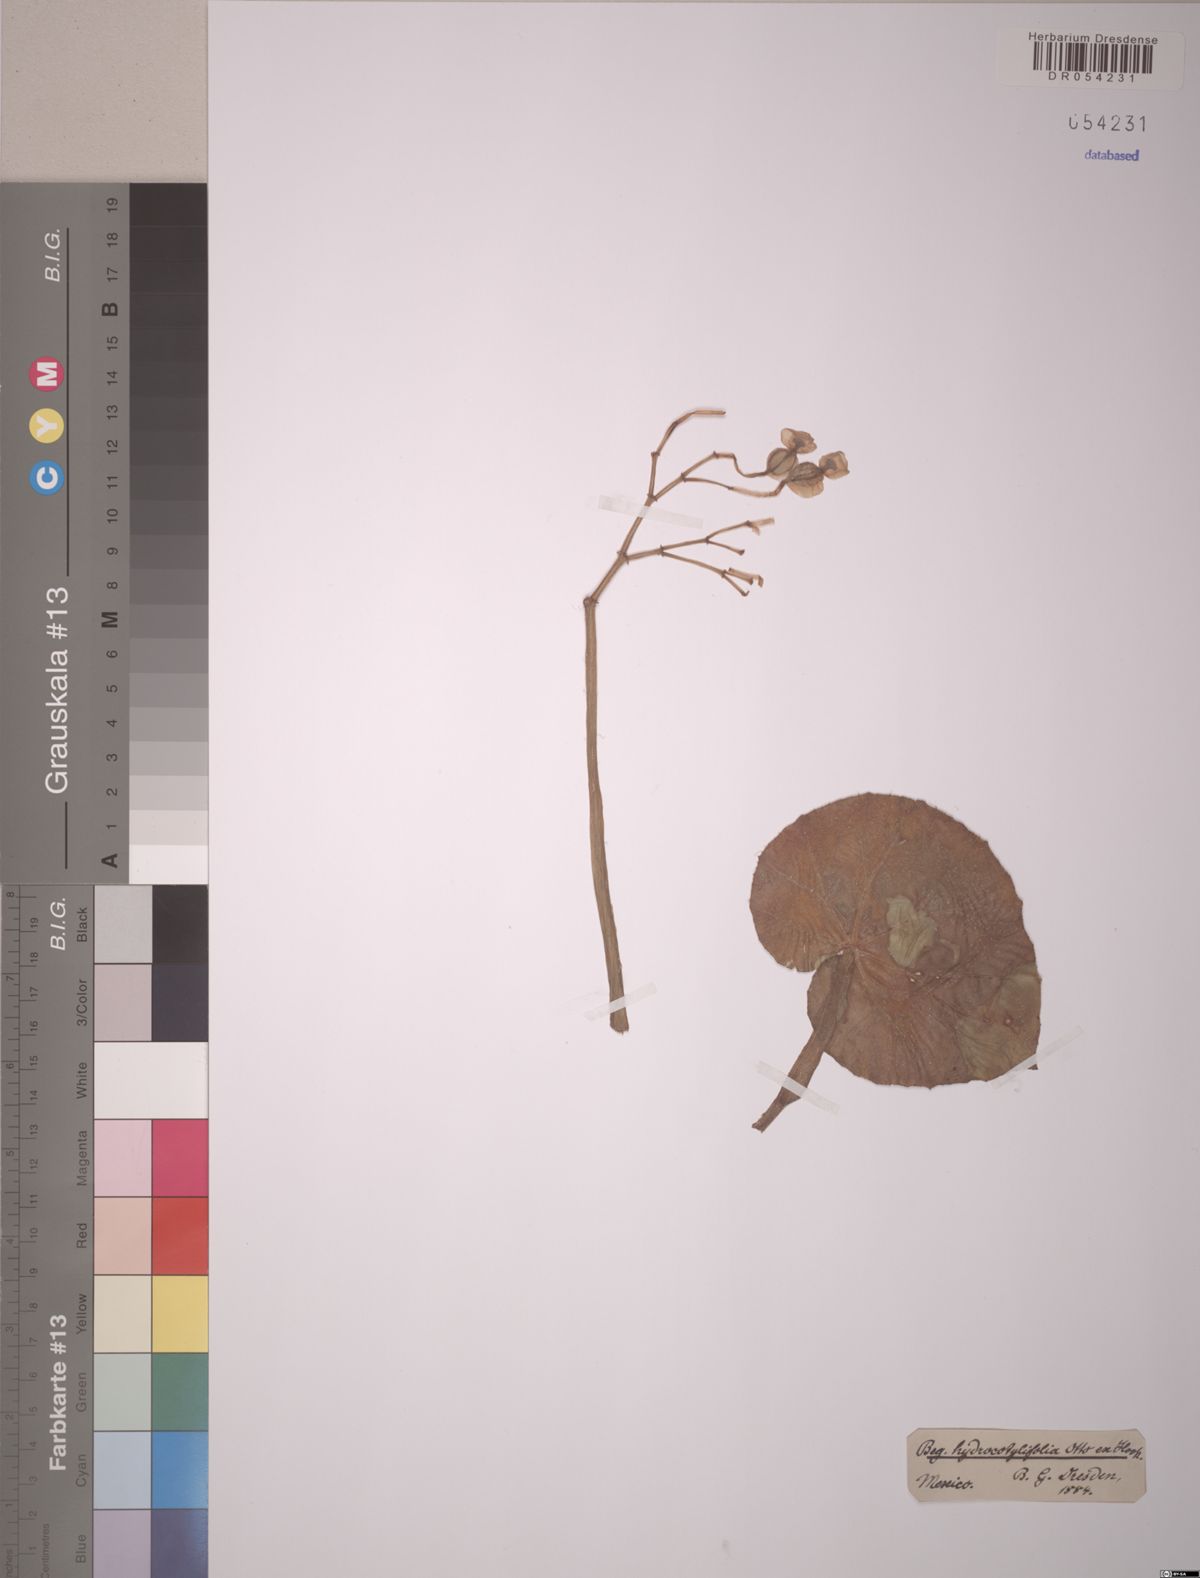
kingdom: Plantae
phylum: Tracheophyta
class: Magnoliopsida
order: Cucurbitales
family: Begoniaceae
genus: Begonia
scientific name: Begonia hydrocotylifolia
